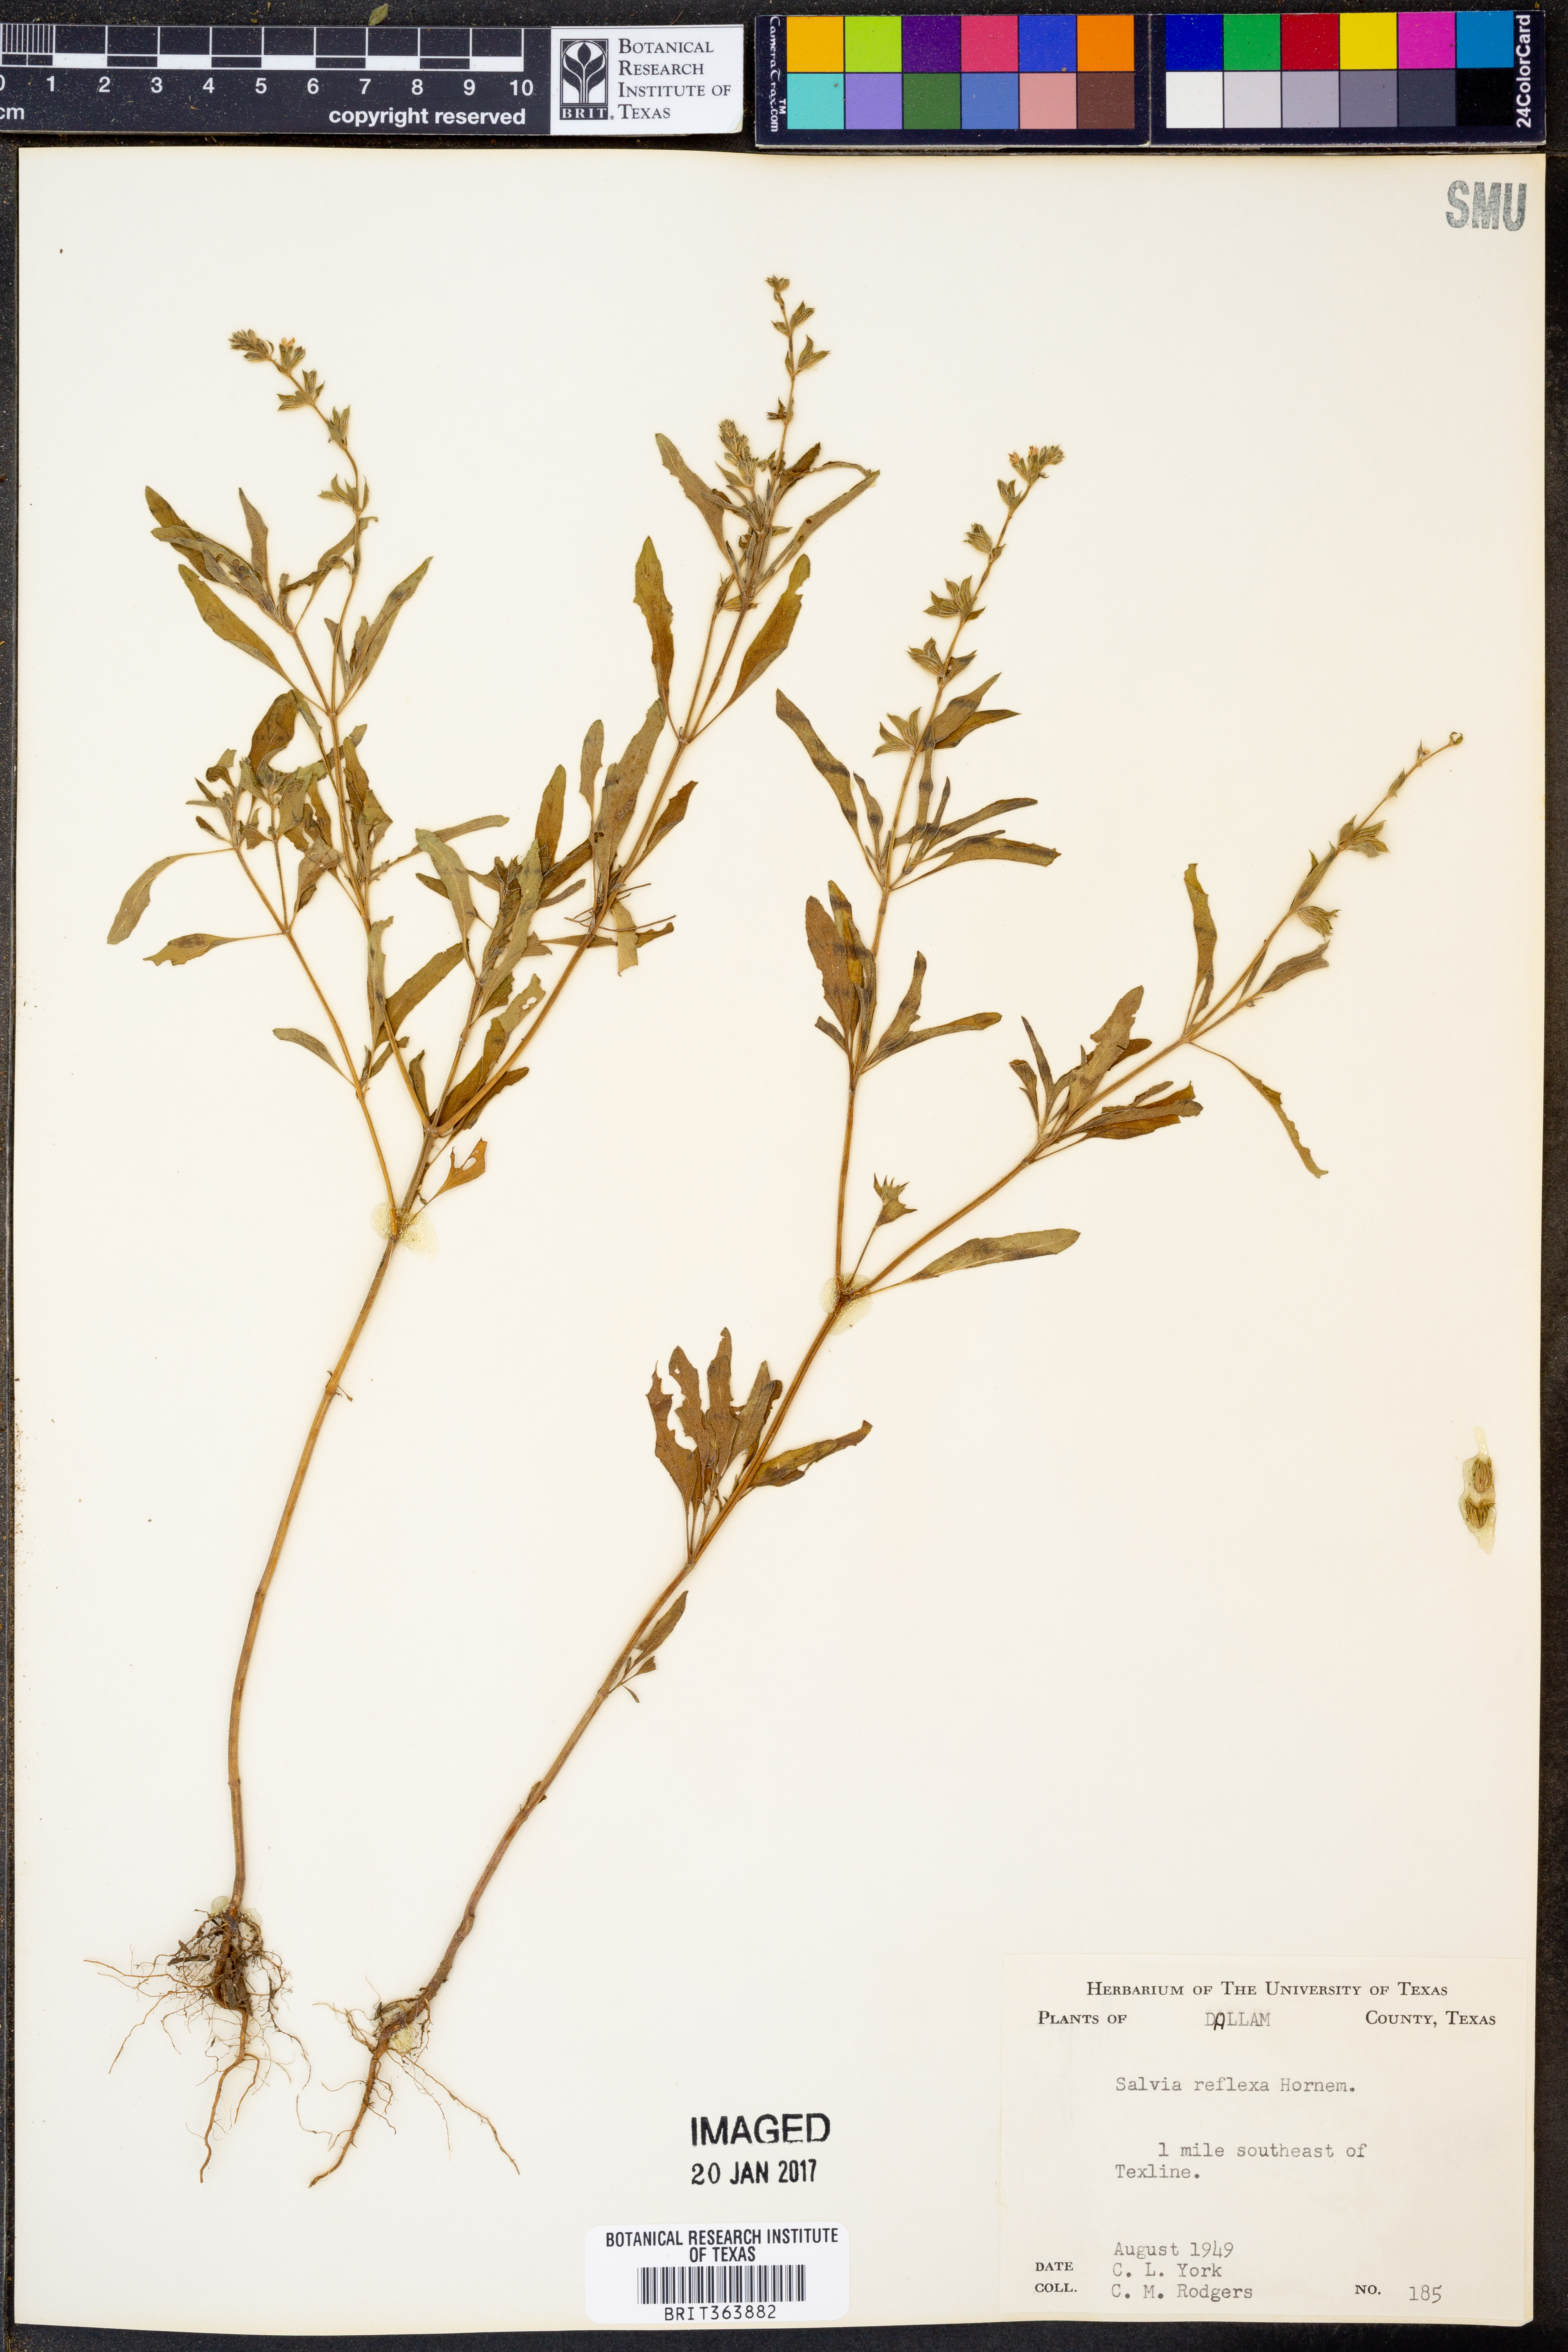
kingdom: Plantae
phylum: Tracheophyta
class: Magnoliopsida
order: Lamiales
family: Lamiaceae
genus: Salvia
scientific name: Salvia reflexa
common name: Mintweed
